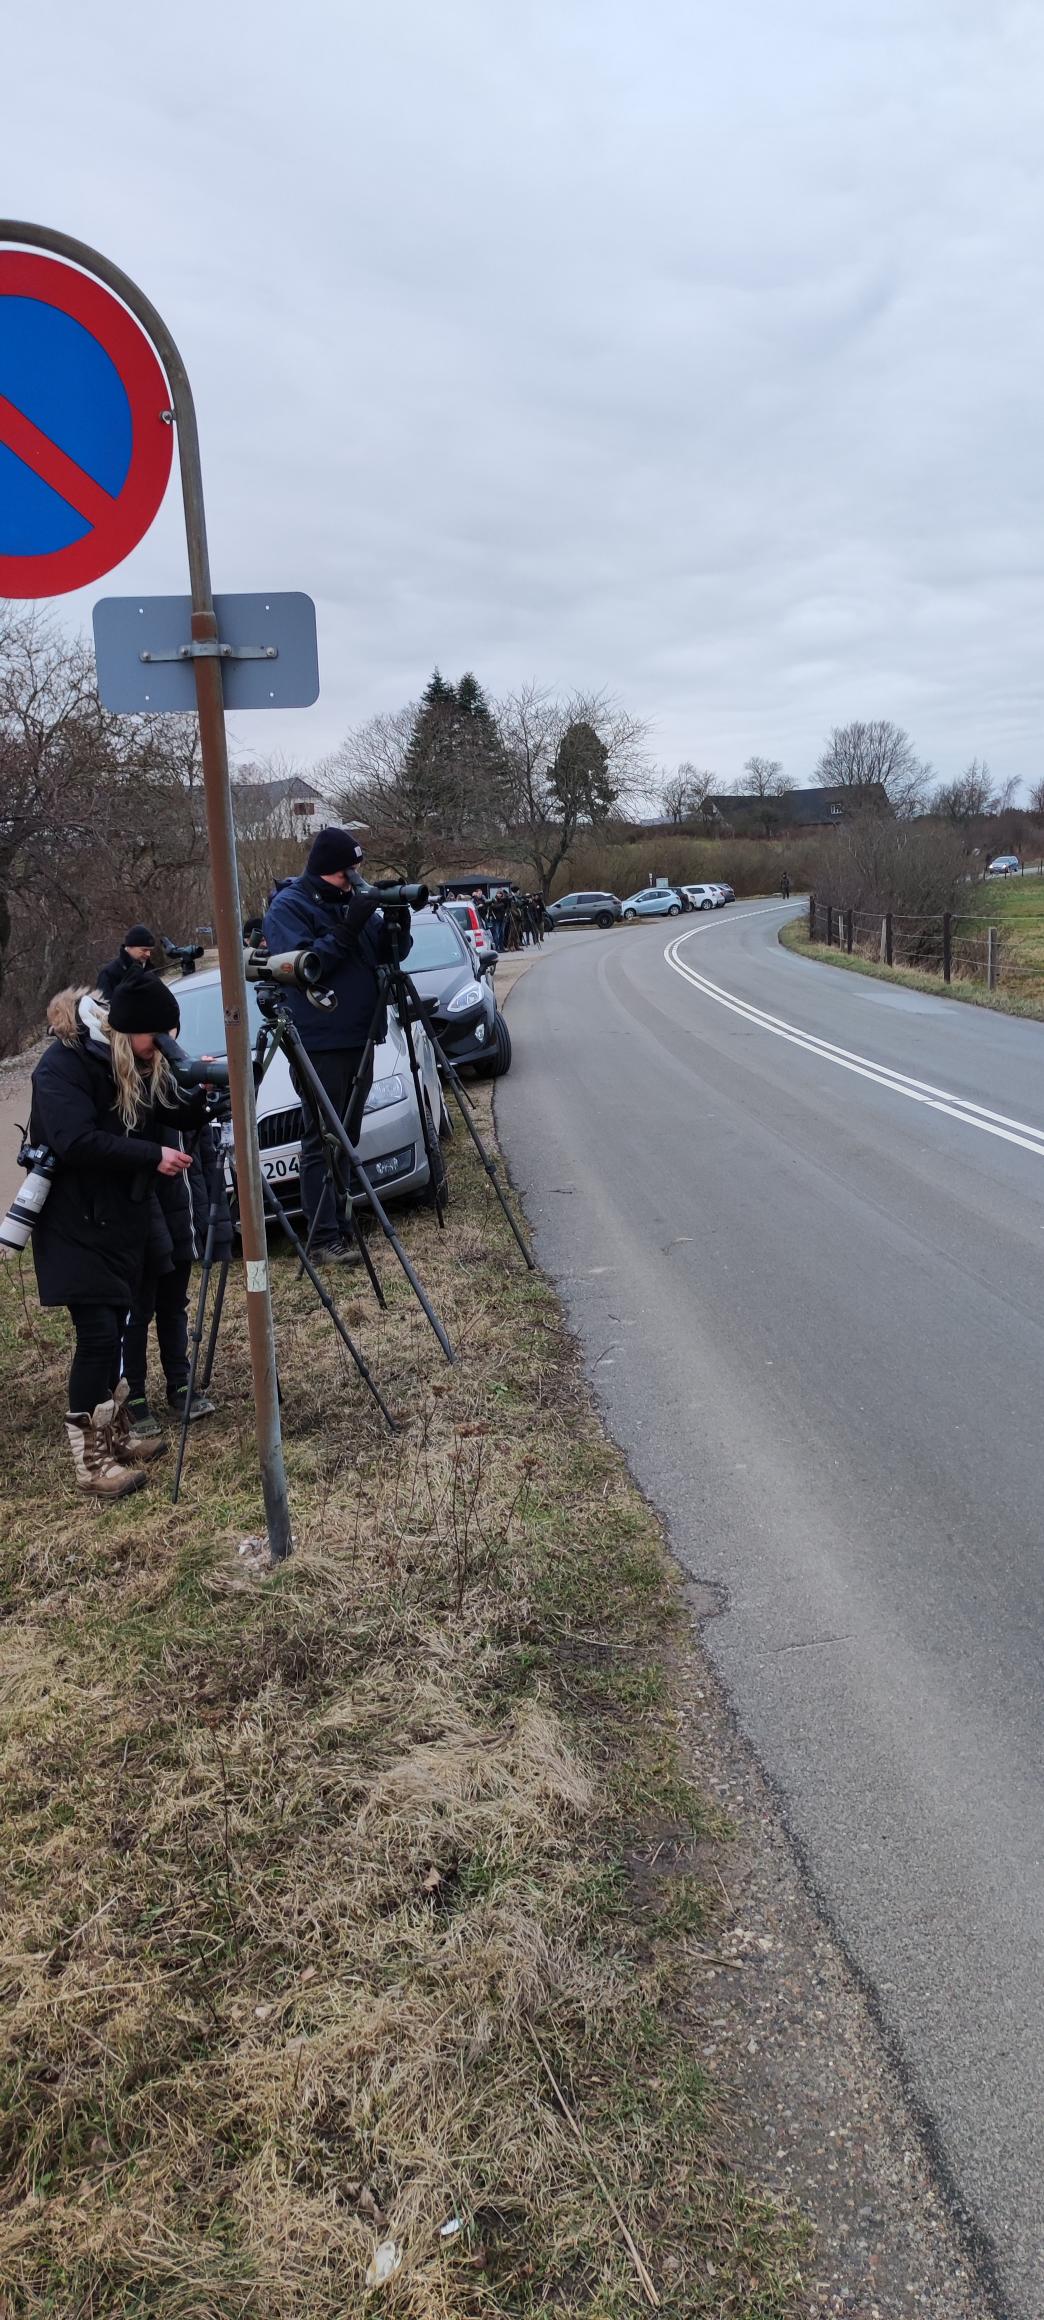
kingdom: Animalia
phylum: Chordata
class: Aves
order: Anseriformes
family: Anatidae
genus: Oxyura
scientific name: Oxyura leucocephala
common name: Hvidhovedet skarveand
